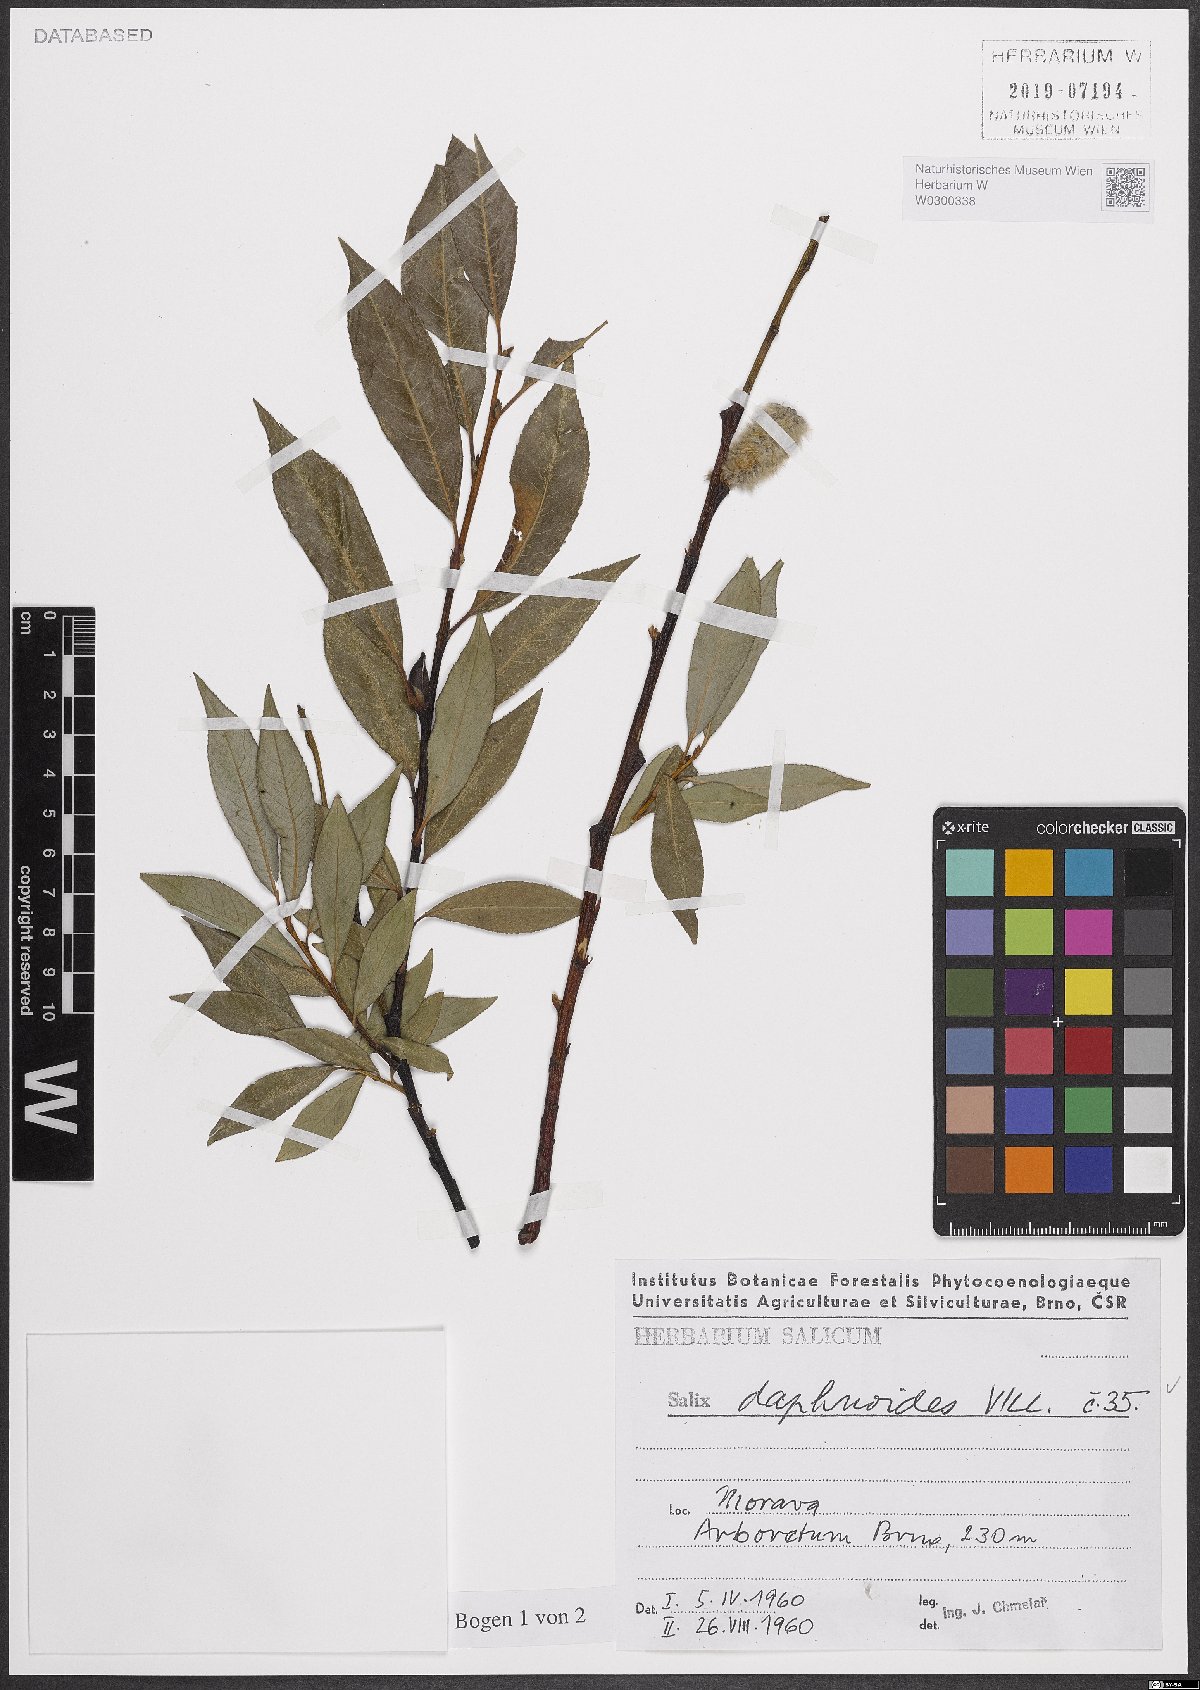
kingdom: Plantae
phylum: Tracheophyta
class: Magnoliopsida
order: Malpighiales
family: Salicaceae
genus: Salix
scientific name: Salix daphnoides
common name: European violet-willow
